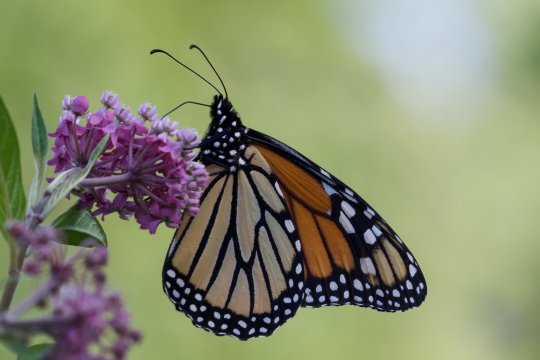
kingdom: Animalia
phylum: Arthropoda
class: Insecta
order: Lepidoptera
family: Nymphalidae
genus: Danaus
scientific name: Danaus plexippus
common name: Monarch
